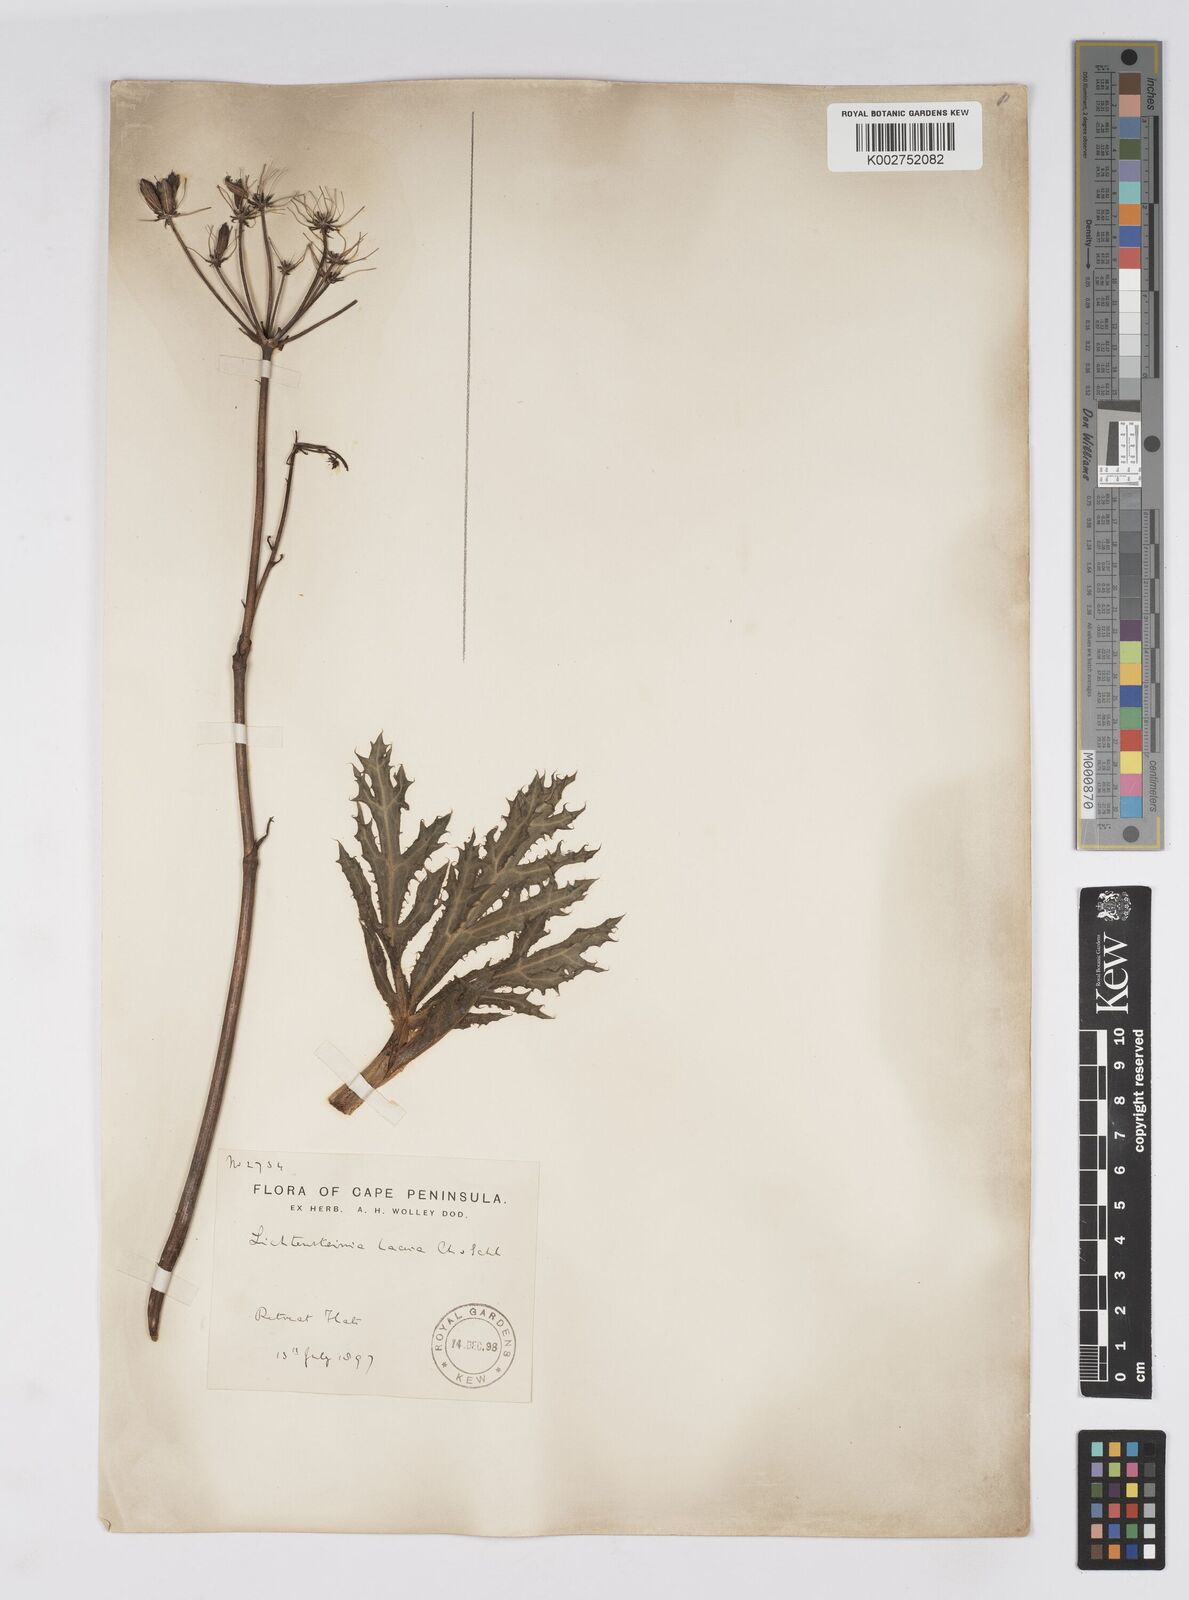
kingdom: Plantae
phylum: Tracheophyta
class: Magnoliopsida
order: Apiales
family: Apiaceae
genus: Lichtensteinia
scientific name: Lichtensteinia lacera
